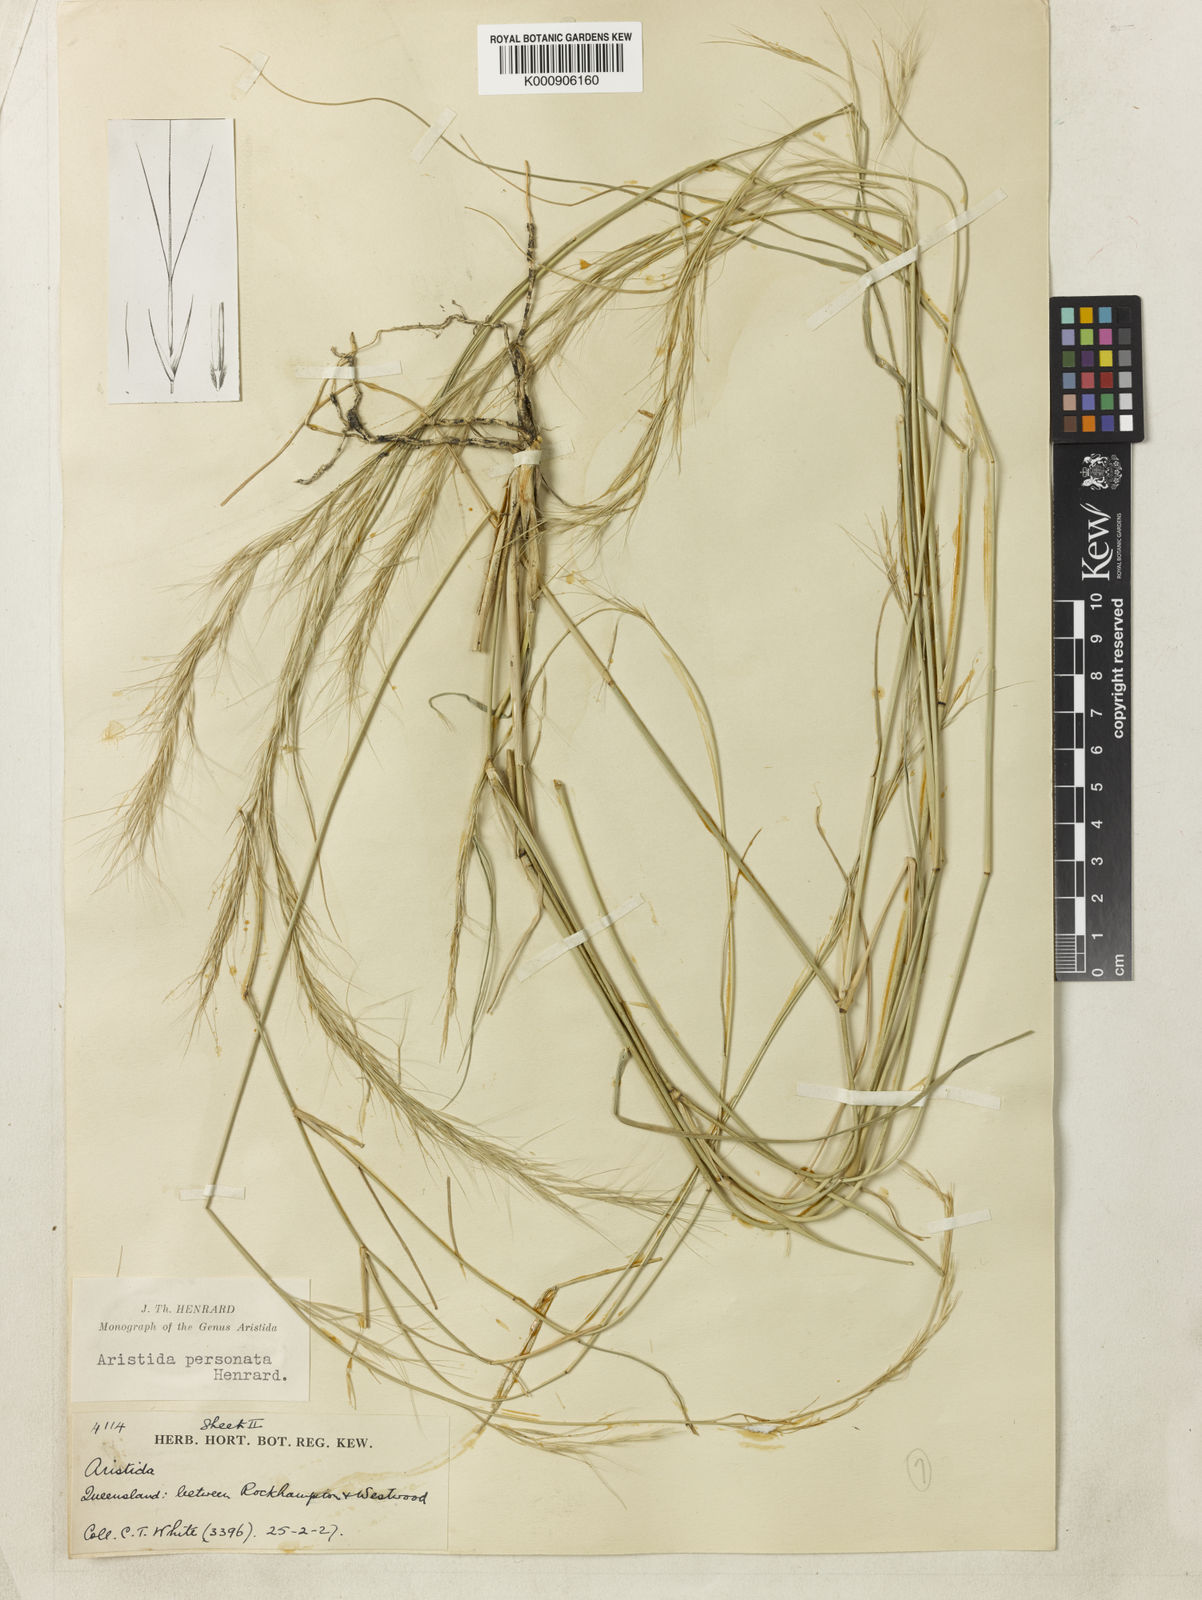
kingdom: Plantae
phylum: Tracheophyta
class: Liliopsida
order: Poales
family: Poaceae
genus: Aristida
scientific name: Aristida personata
